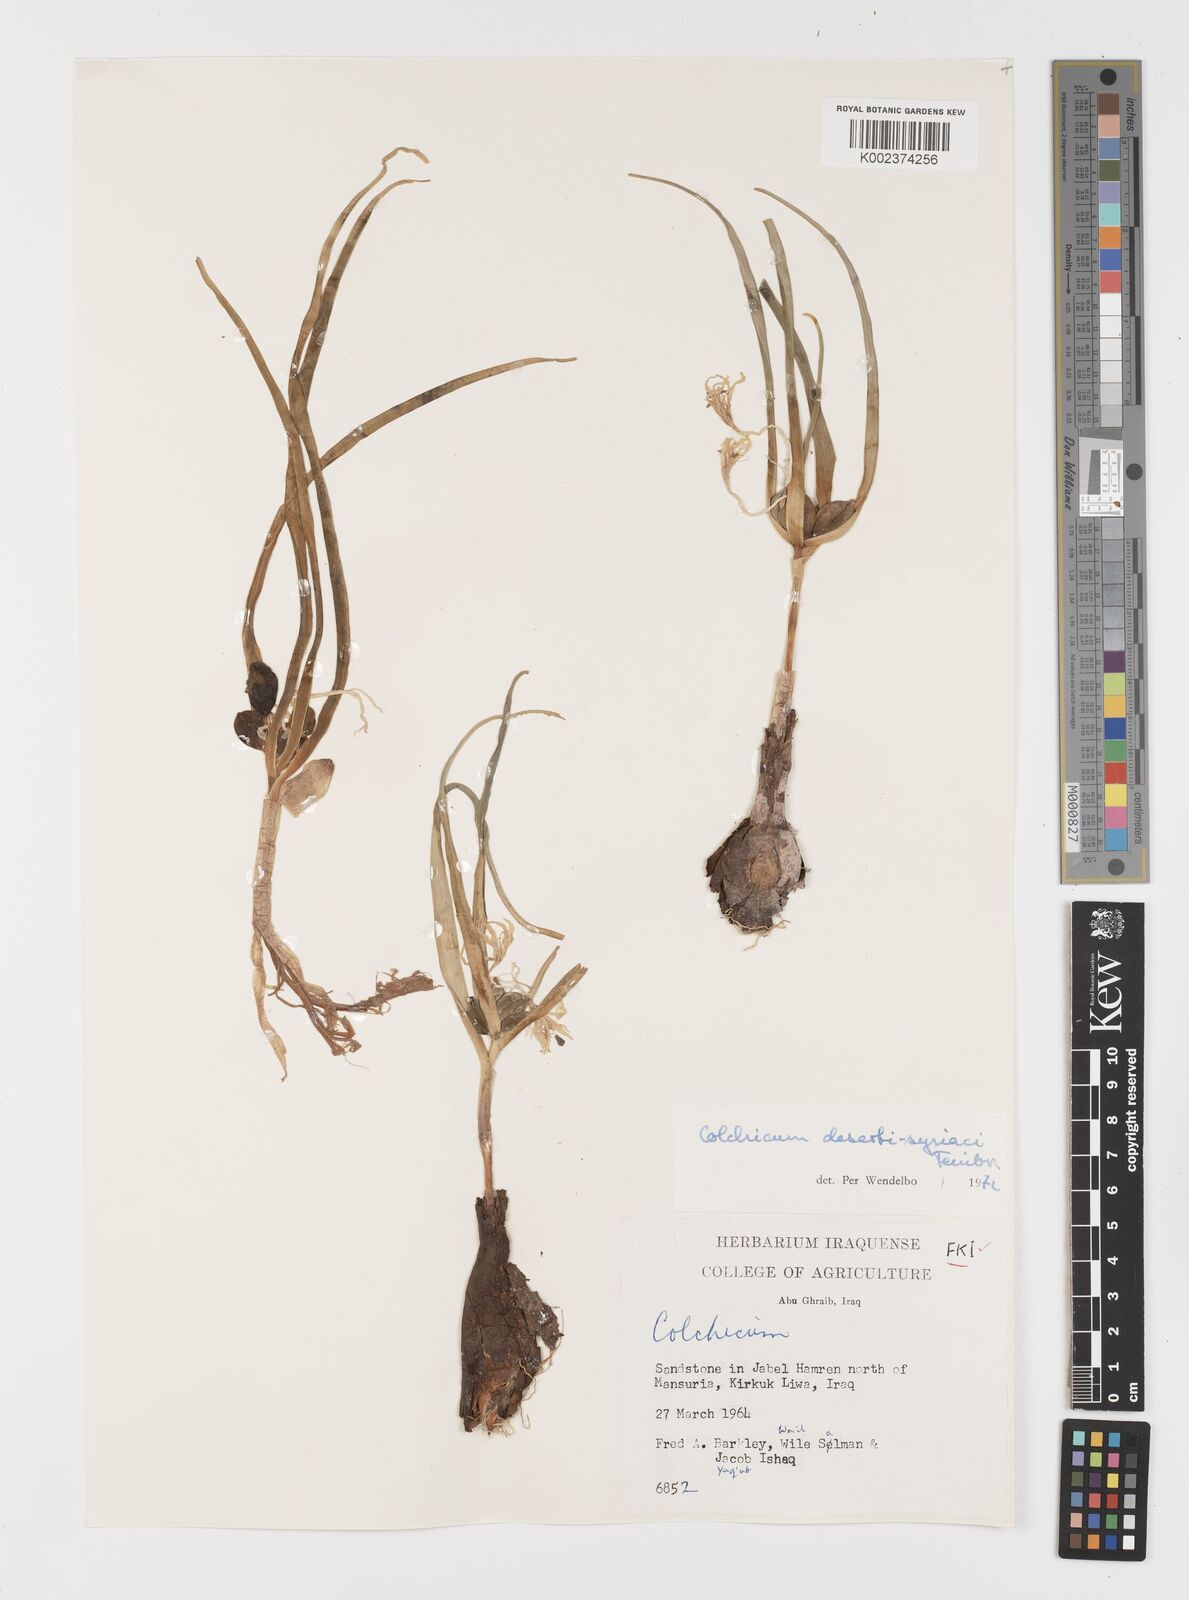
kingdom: Plantae
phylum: Tracheophyta
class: Liliopsida
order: Liliales
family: Colchicaceae
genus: Colchicum
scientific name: Colchicum schimperi
